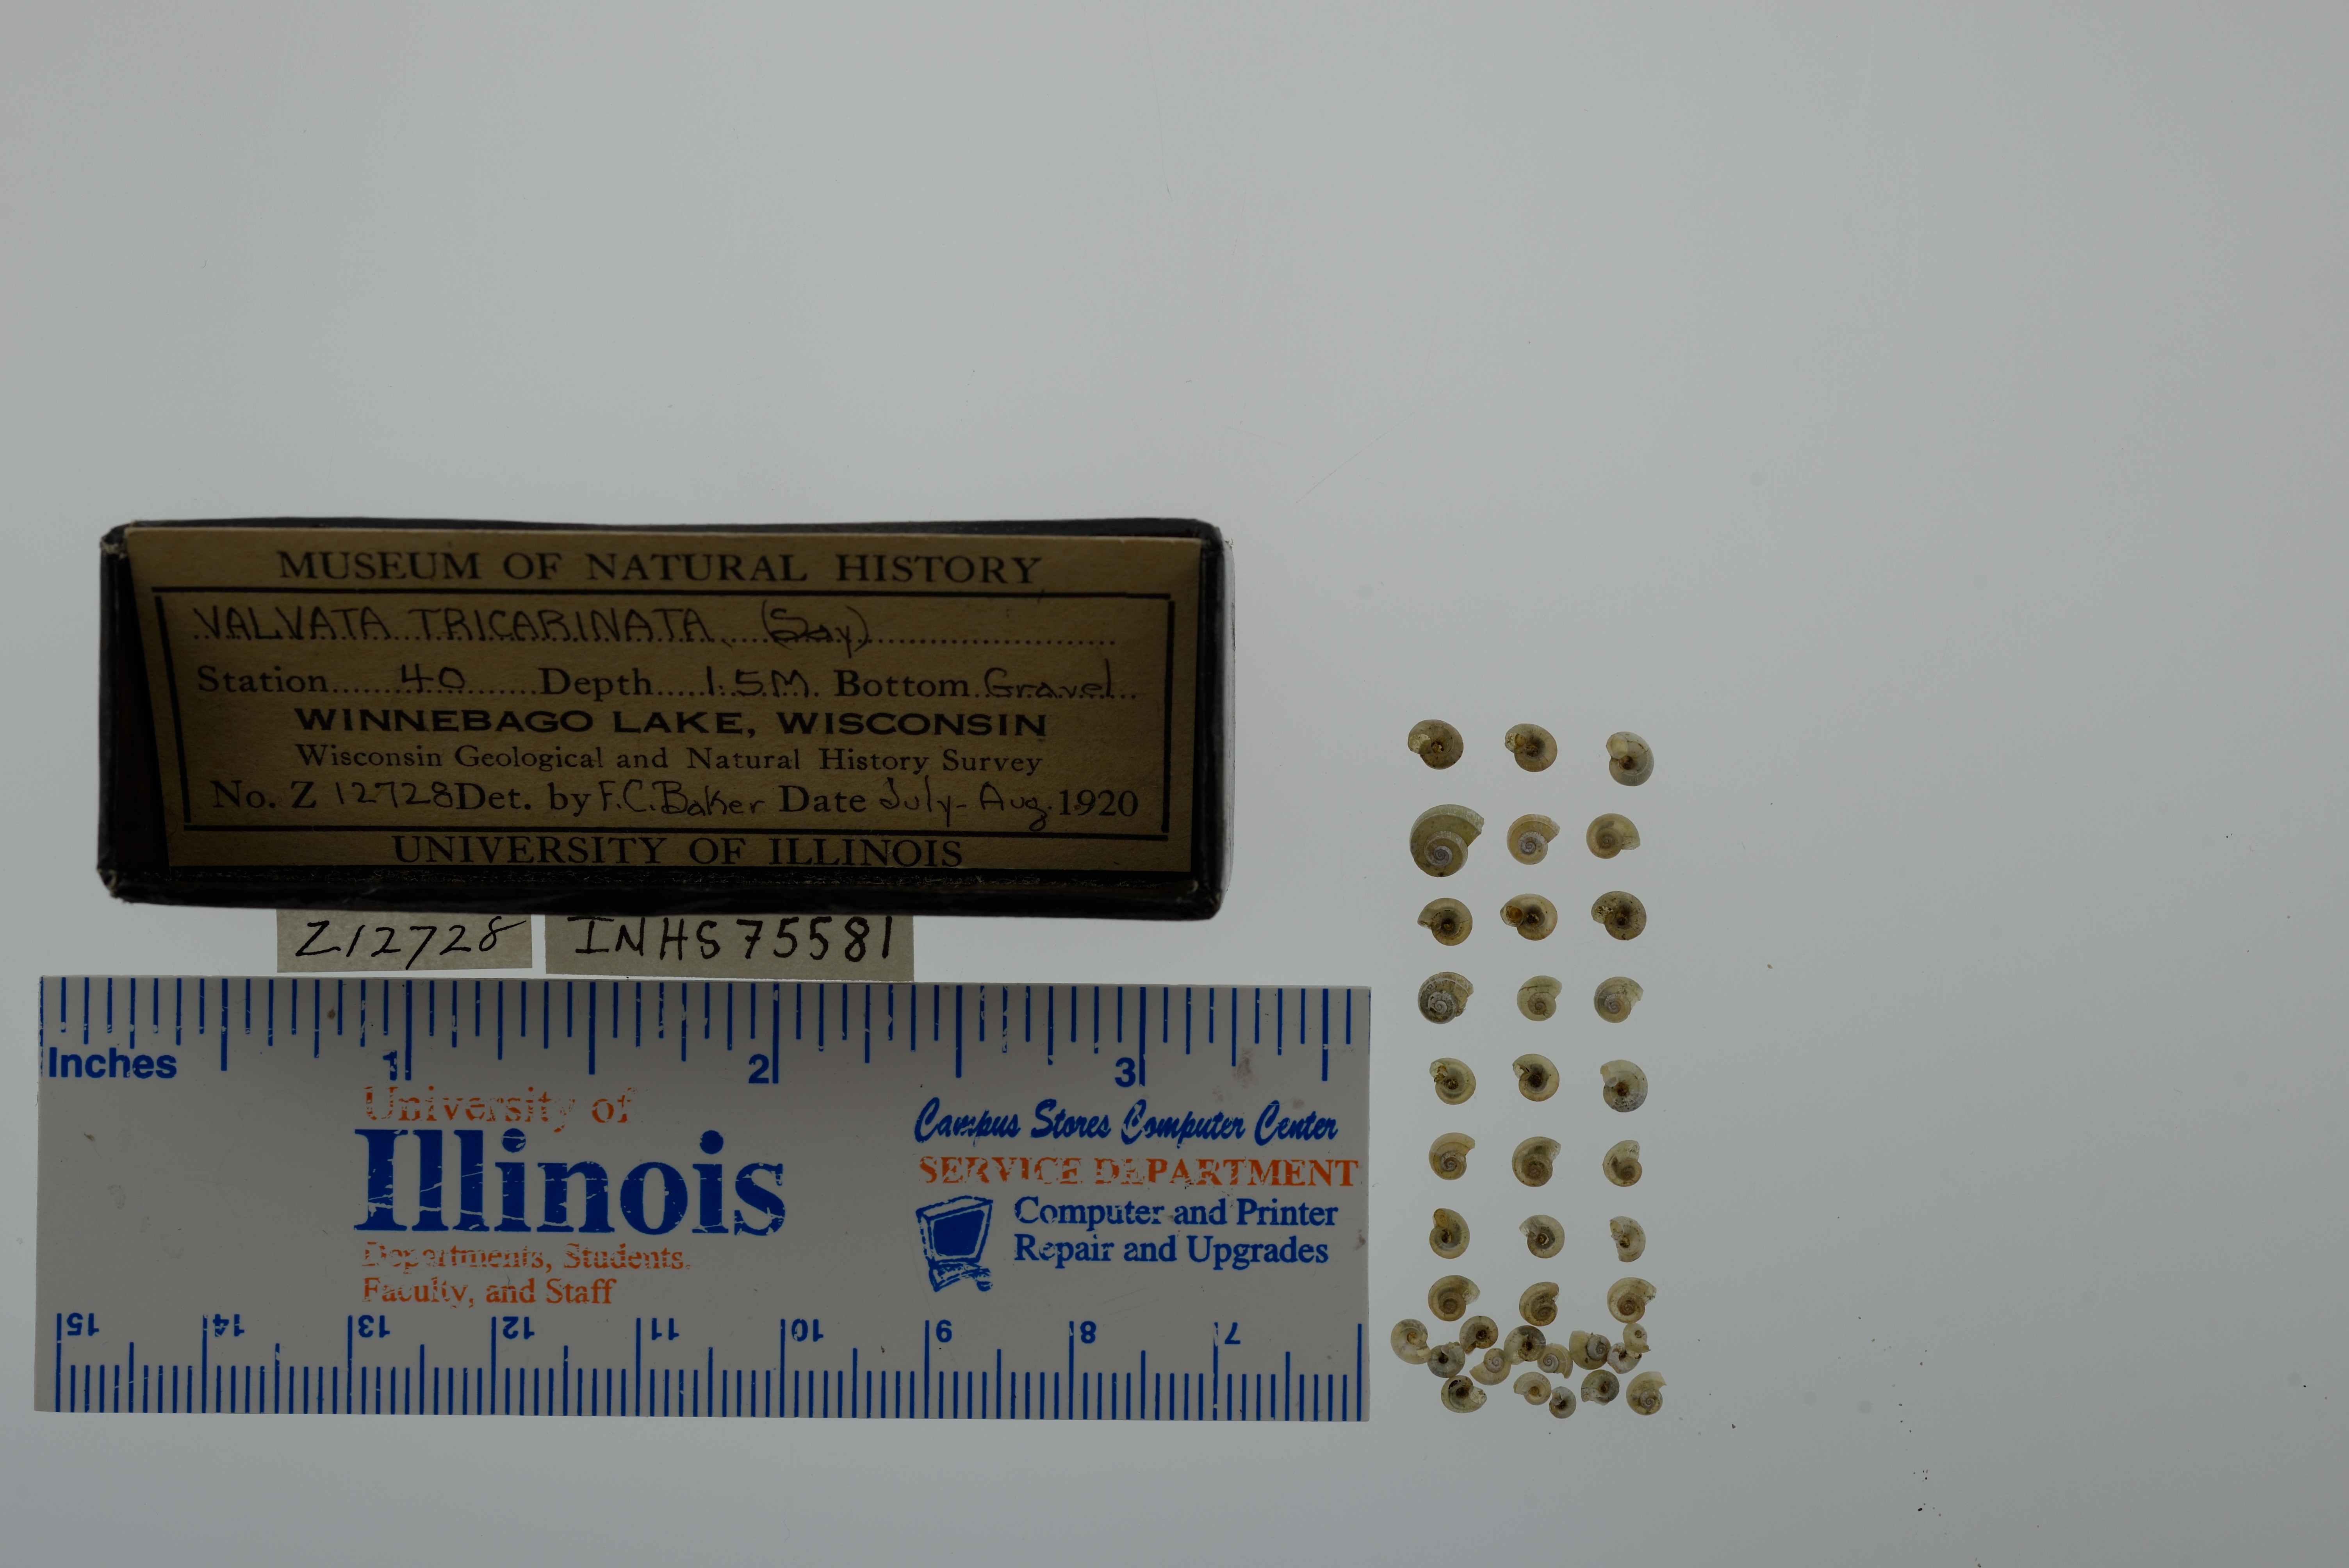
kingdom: Animalia
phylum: Mollusca
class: Gastropoda
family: Valvatidae
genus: Valvata
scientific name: Valvata tricarinata
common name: Three-ridge valvata
